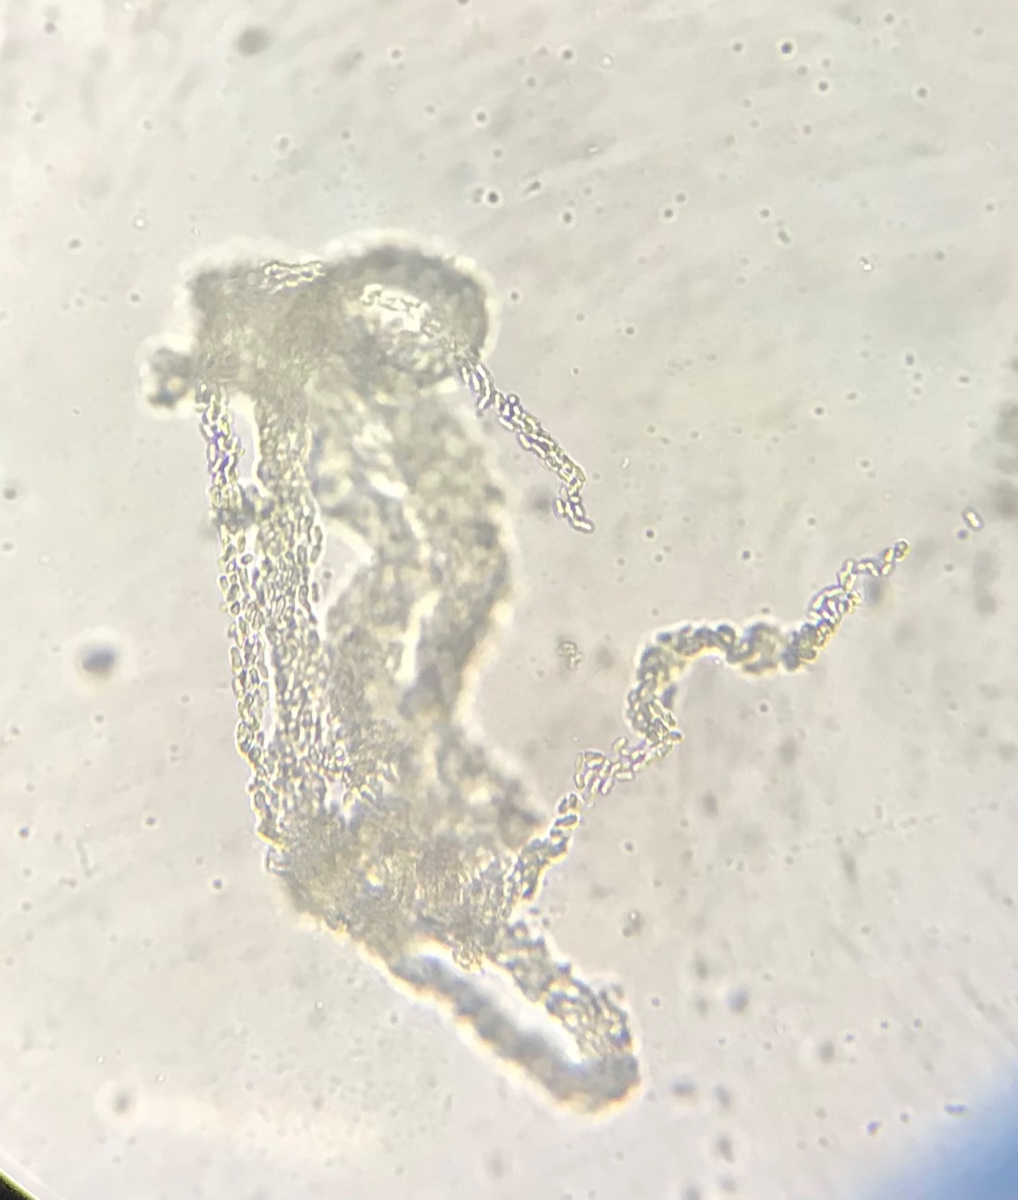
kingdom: Fungi
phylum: Ascomycota
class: Dothideomycetes
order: Pleosporales
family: Didymellaceae
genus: Phoma
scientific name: Phoma
